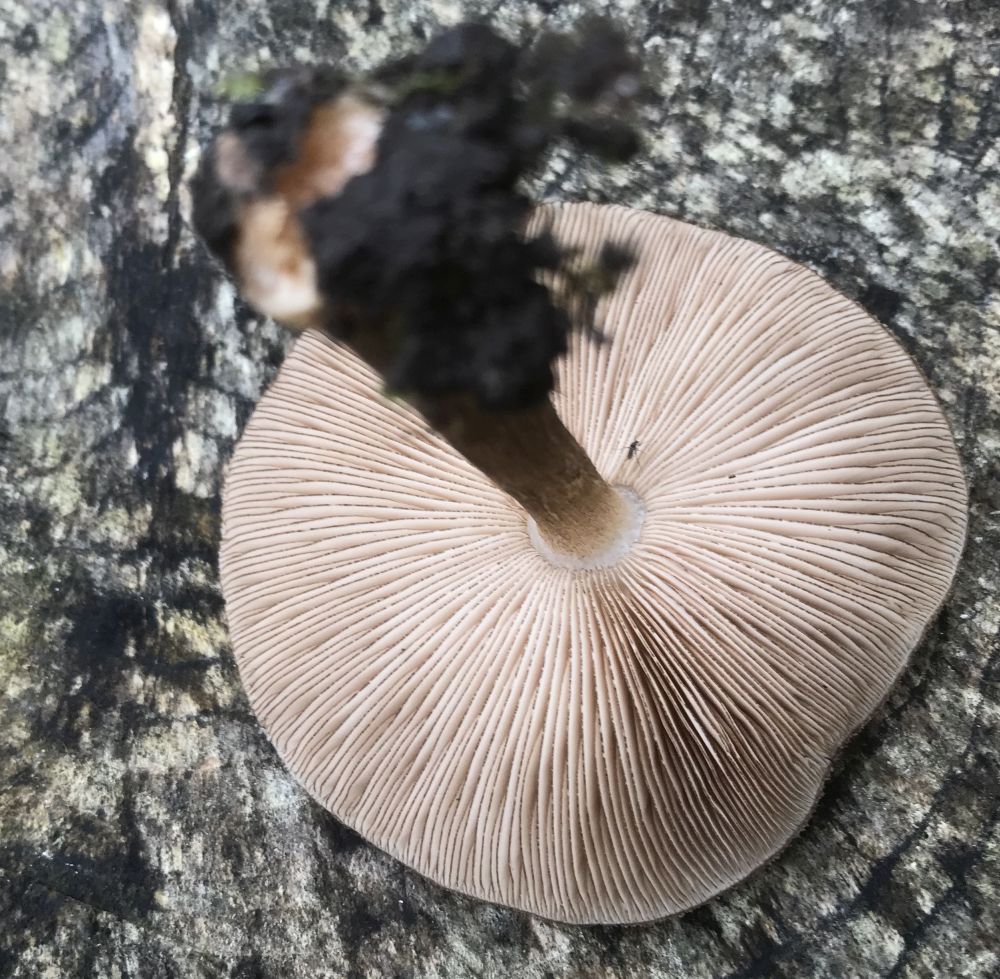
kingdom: Fungi
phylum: Basidiomycota
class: Agaricomycetes
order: Agaricales
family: Pluteaceae
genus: Pluteus
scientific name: Pluteus umbrosus
